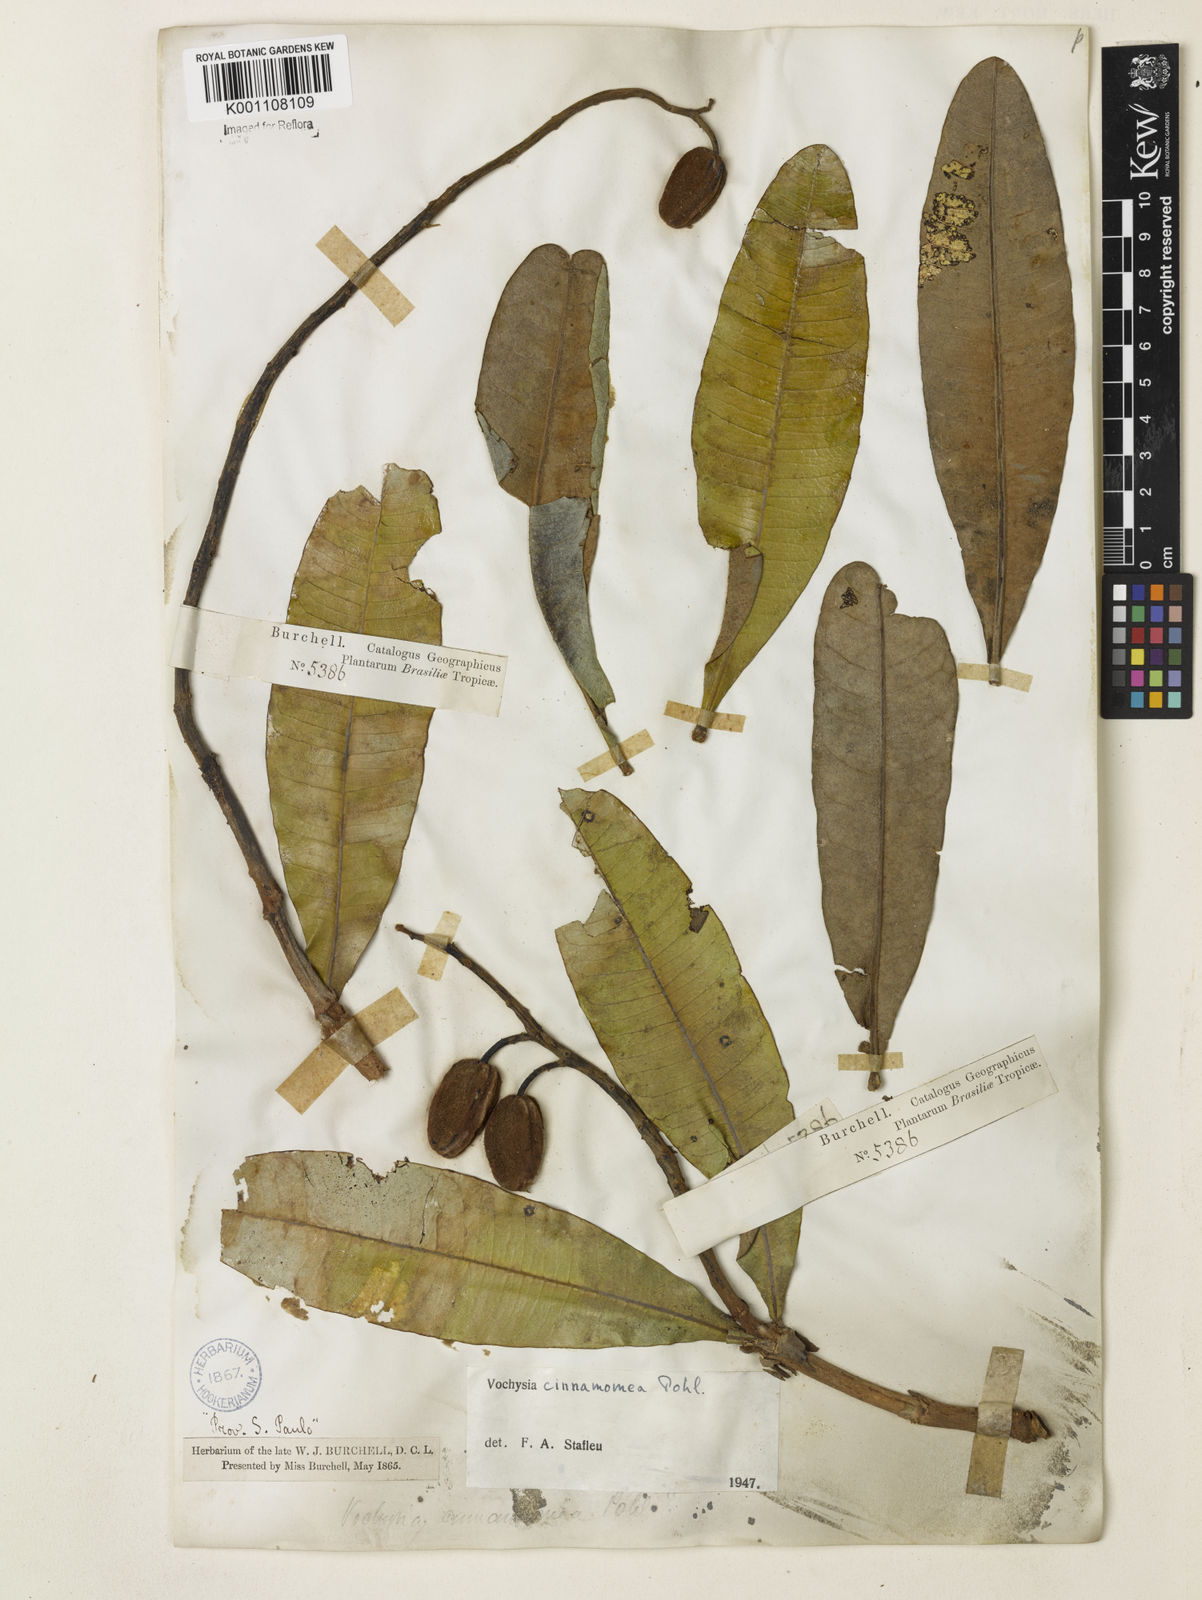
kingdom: Plantae
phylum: Tracheophyta
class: Magnoliopsida
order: Myrtales
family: Vochysiaceae
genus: Vochysia
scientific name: Vochysia cinnamomea
